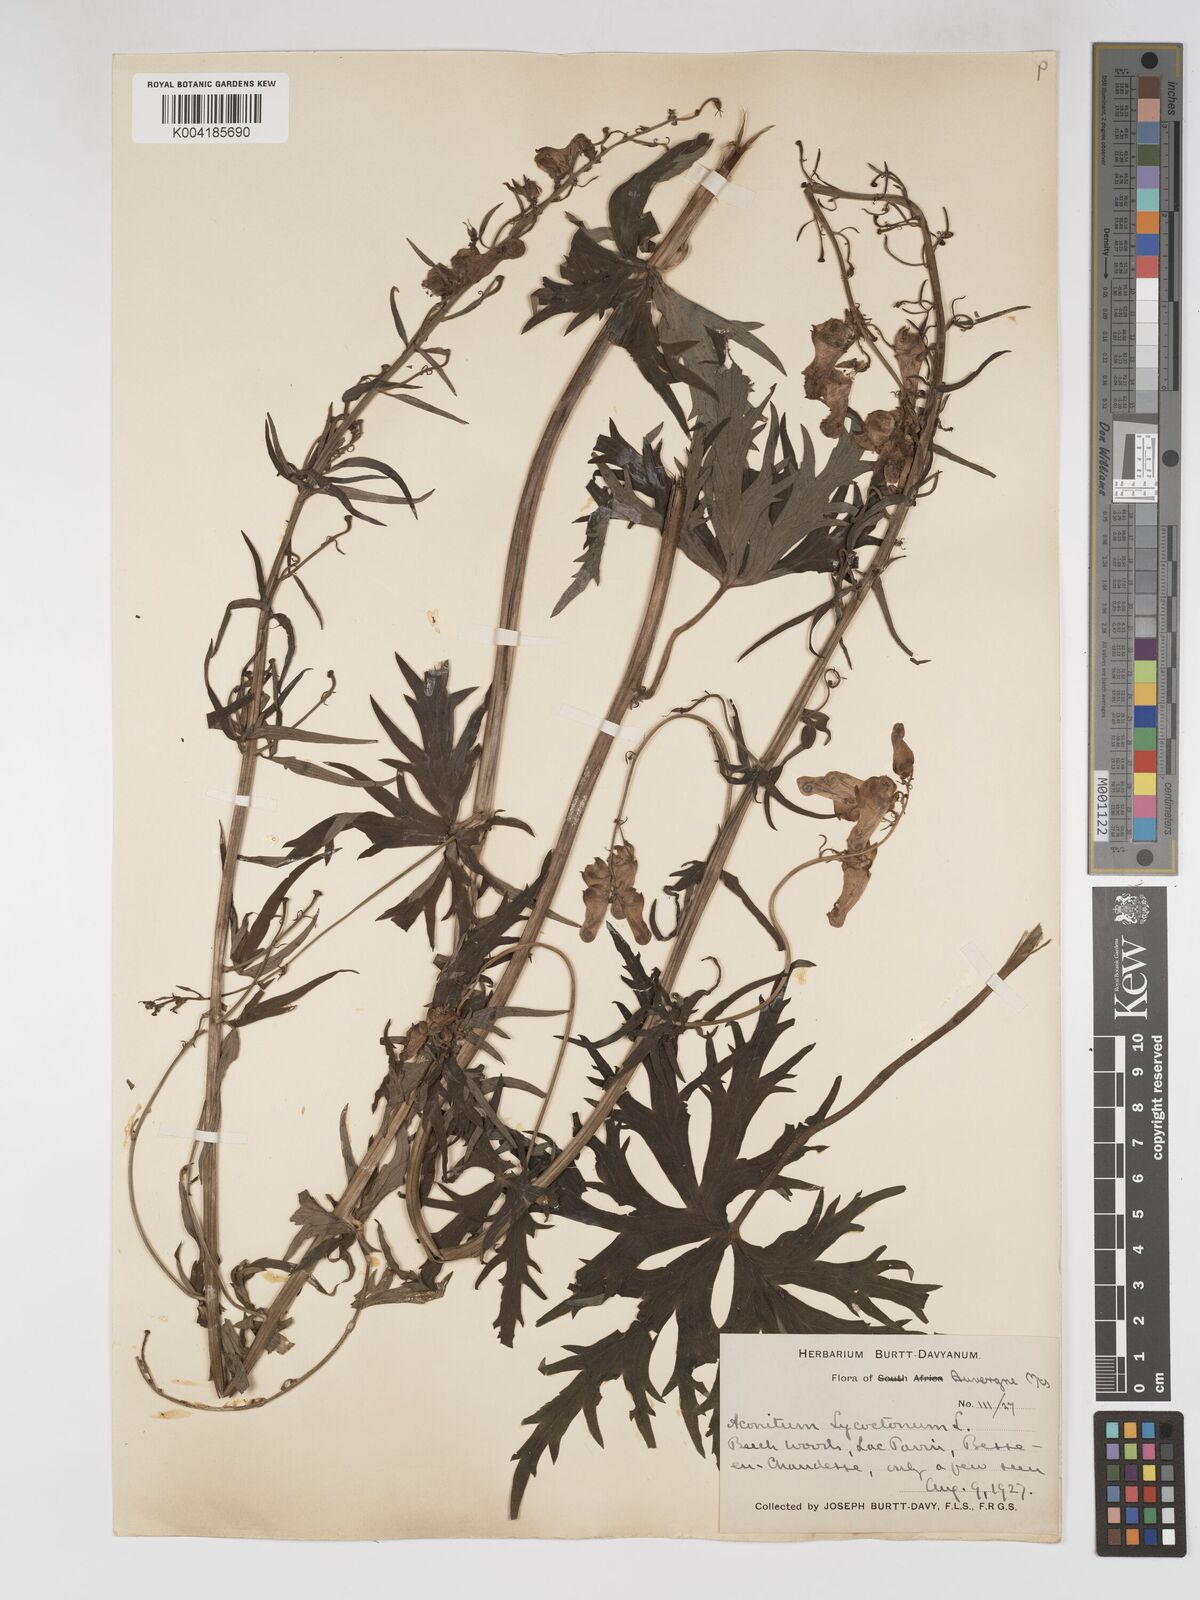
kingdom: Plantae
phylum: Tracheophyta
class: Magnoliopsida
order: Ranunculales
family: Ranunculaceae
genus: Aconitum
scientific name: Aconitum lycoctonum
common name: Wolf's-bane
